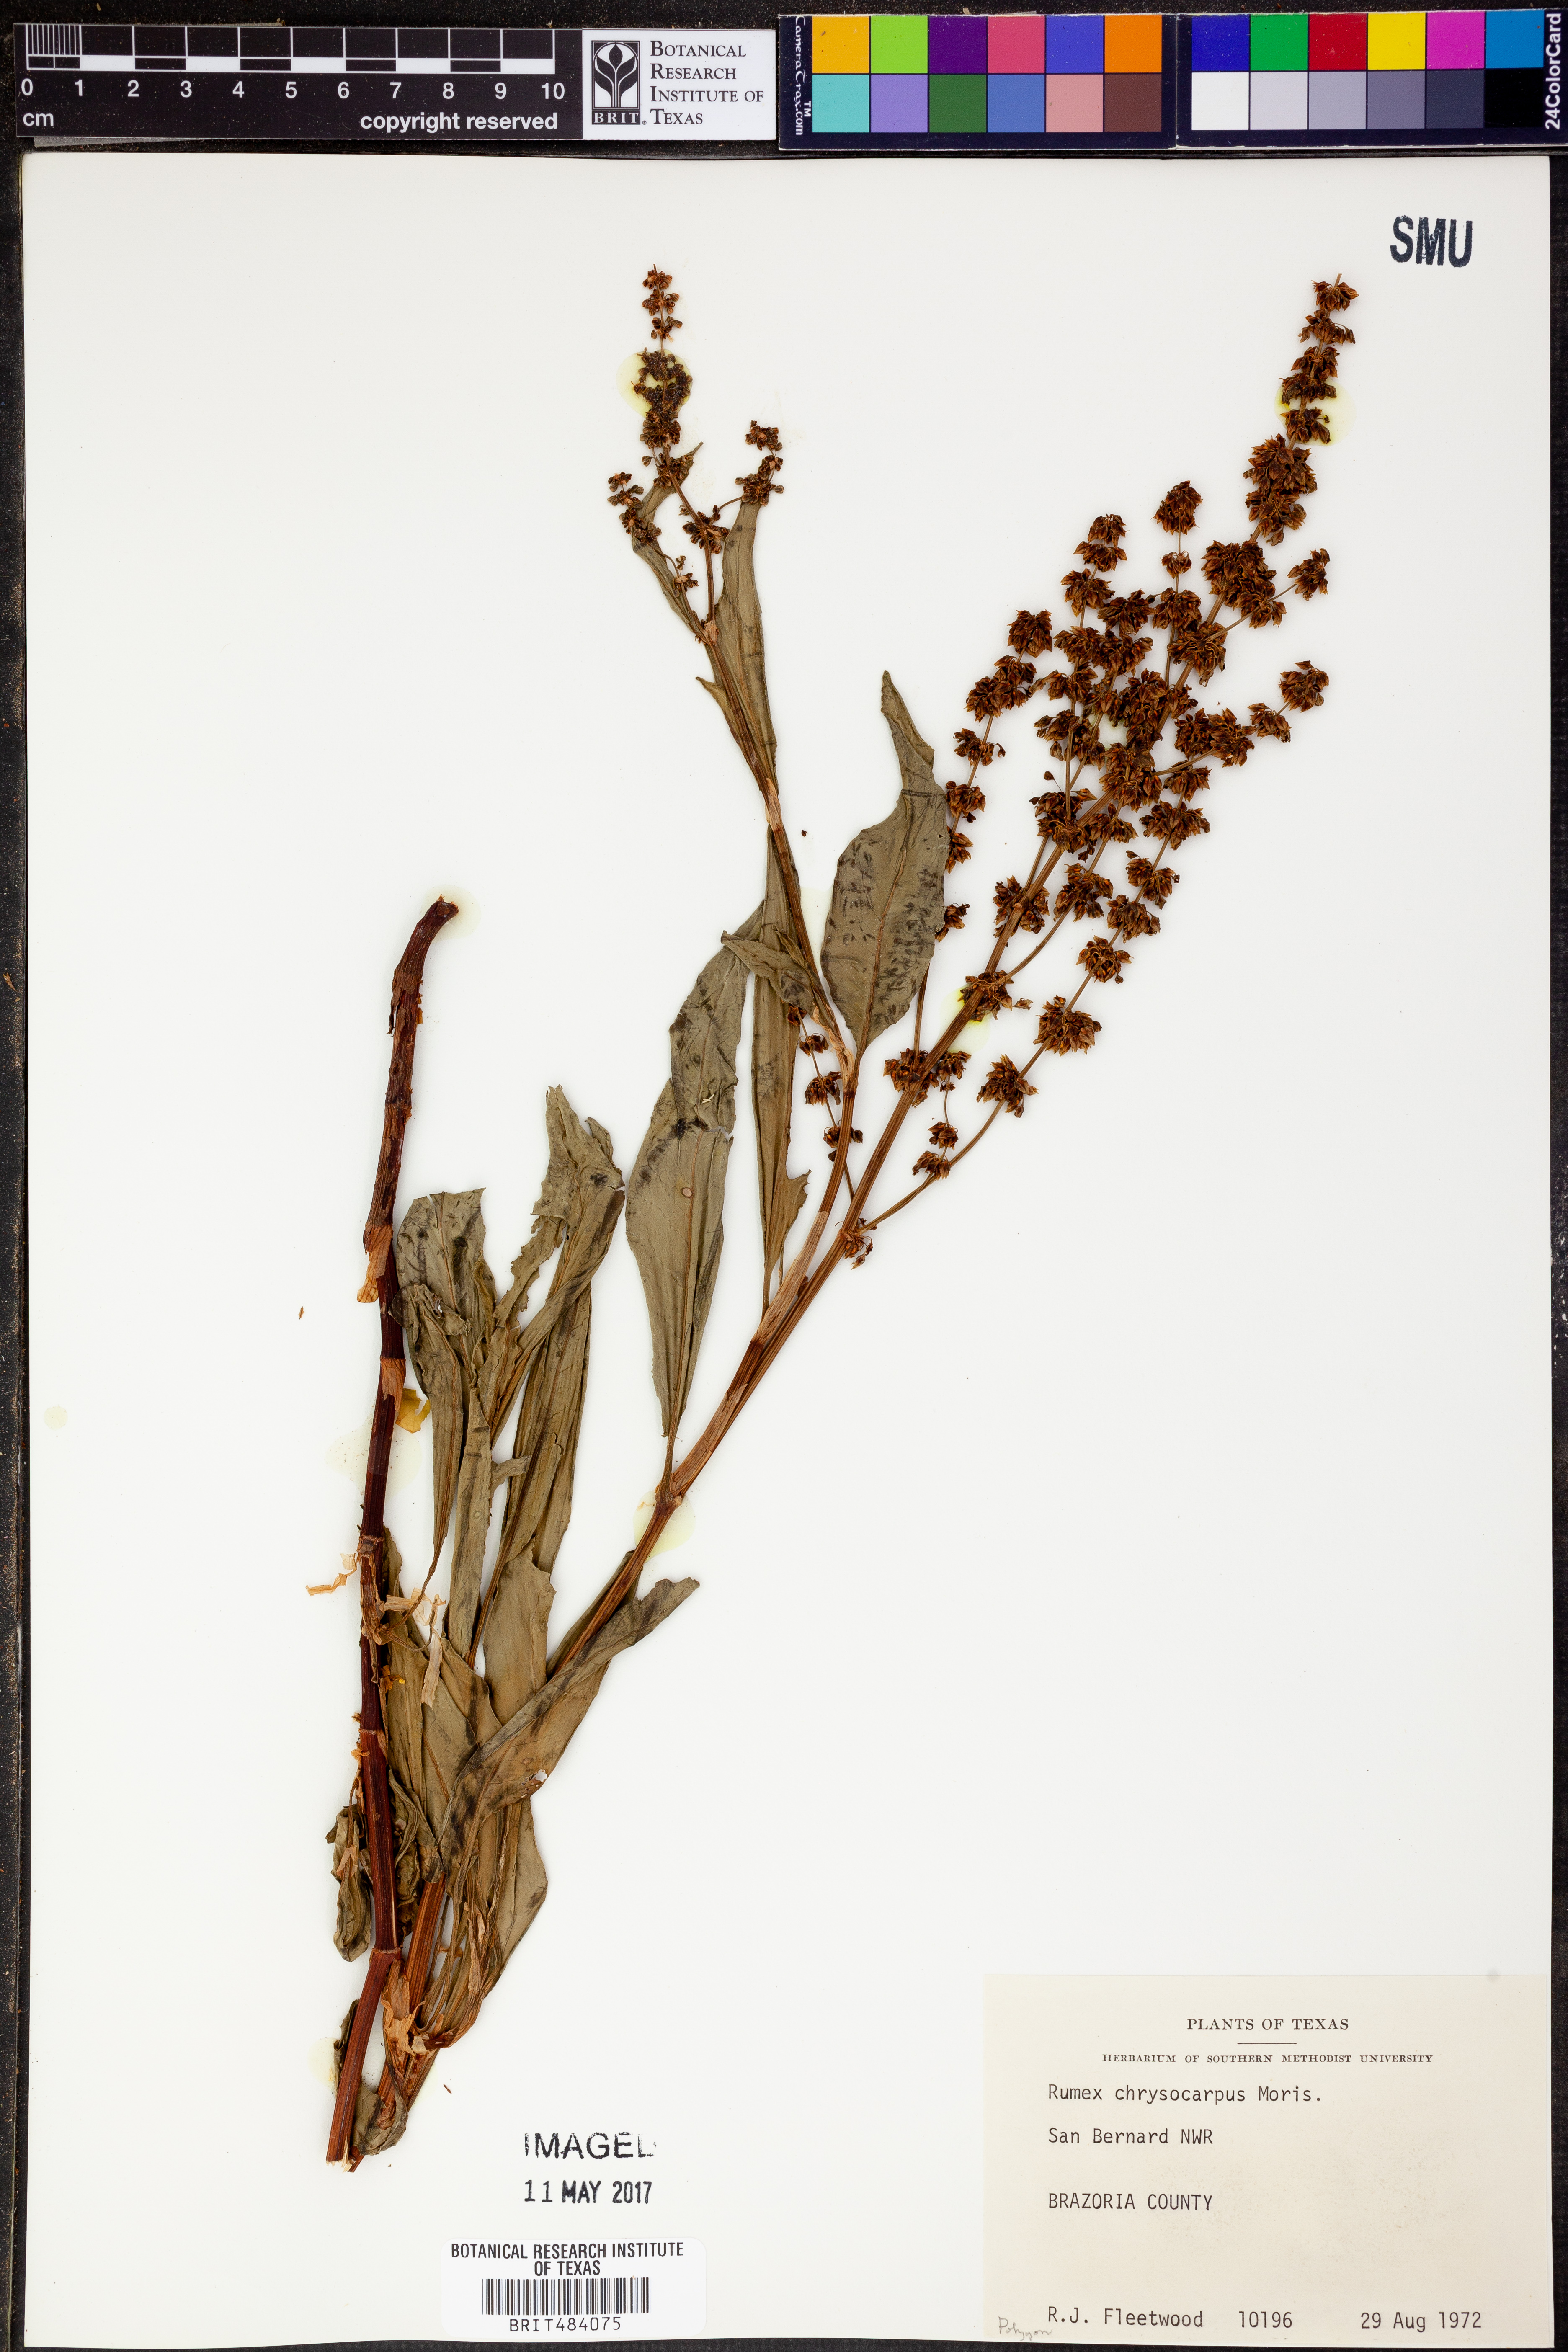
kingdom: Plantae
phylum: Tracheophyta
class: Magnoliopsida
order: Caryophyllales
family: Polygonaceae
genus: Rumex
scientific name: Rumex chrysocarpus
